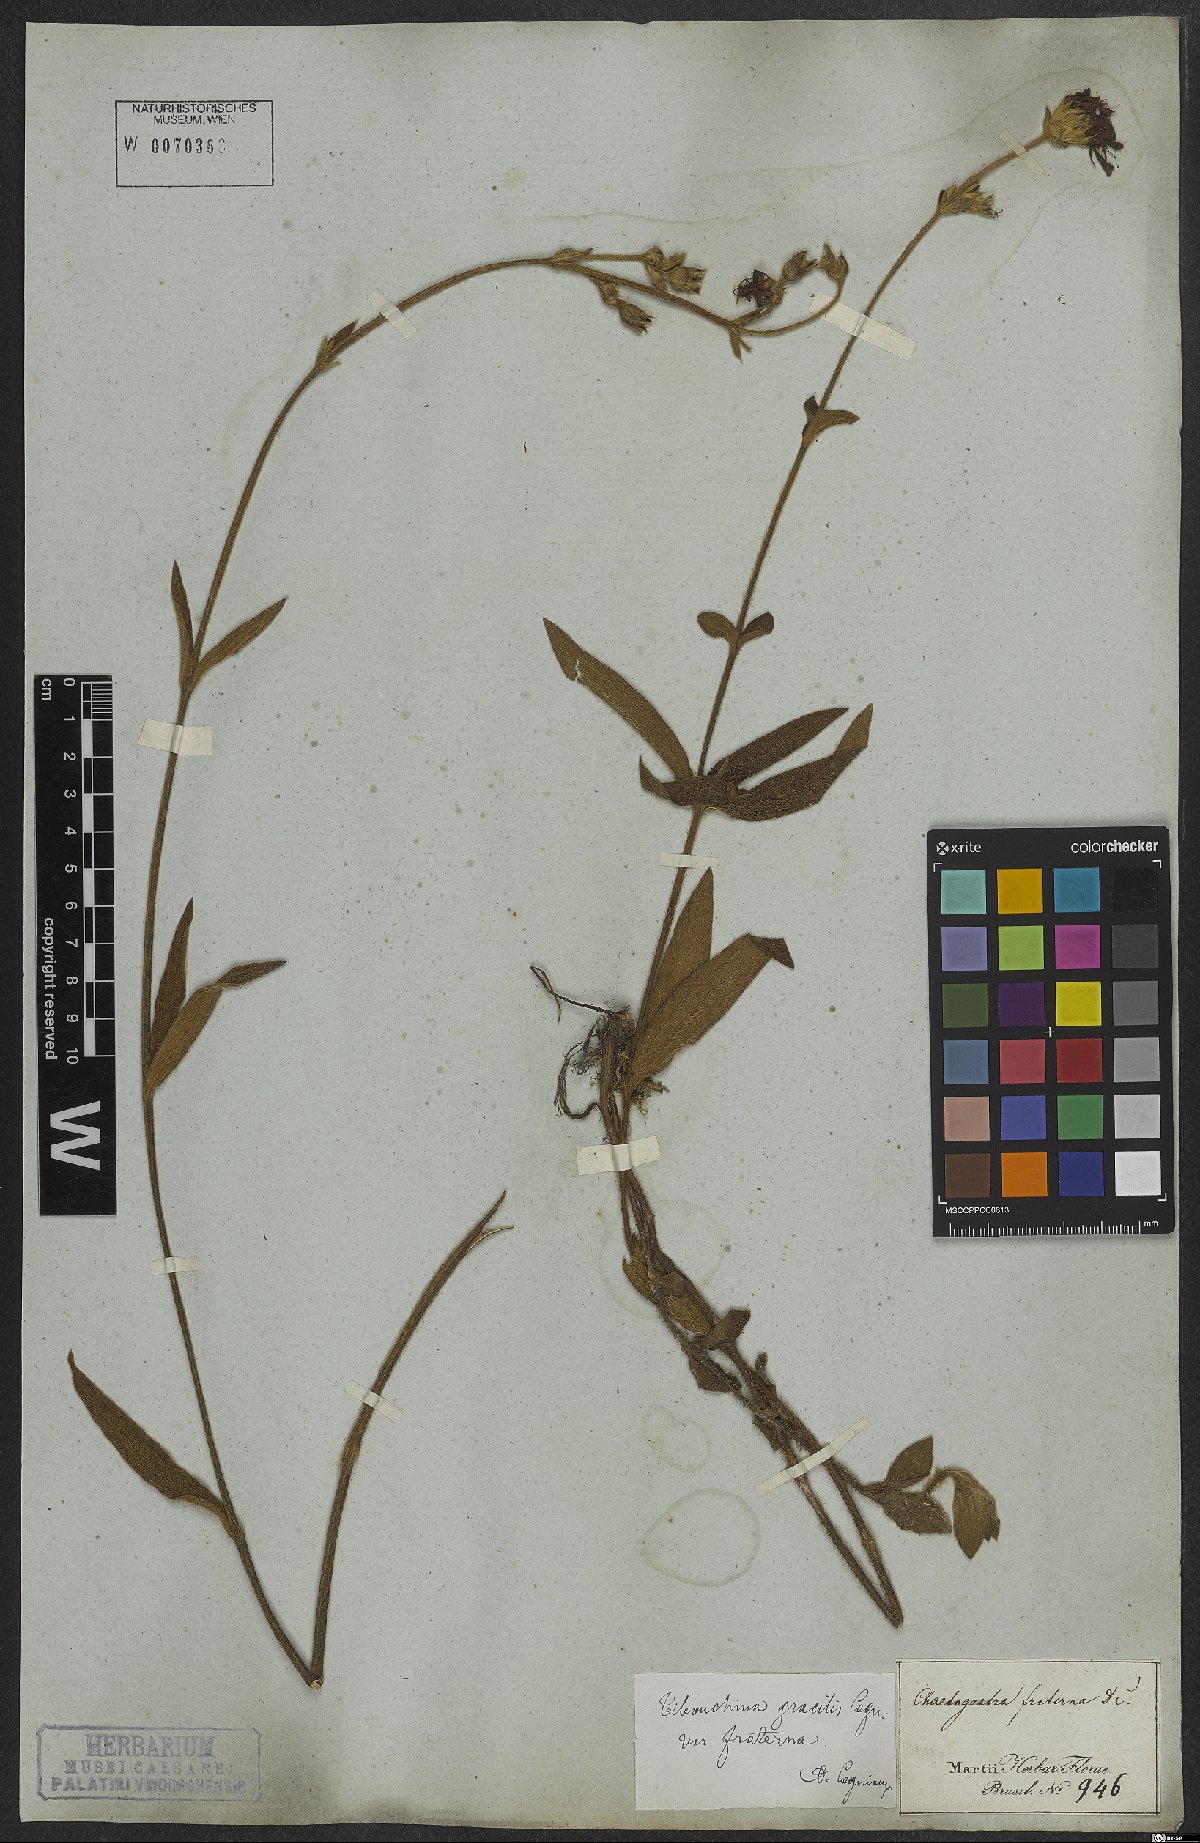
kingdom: Plantae
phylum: Tracheophyta
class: Magnoliopsida
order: Myrtales
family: Melastomataceae
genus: Chaetogastra
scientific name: Chaetogastra gracilis
